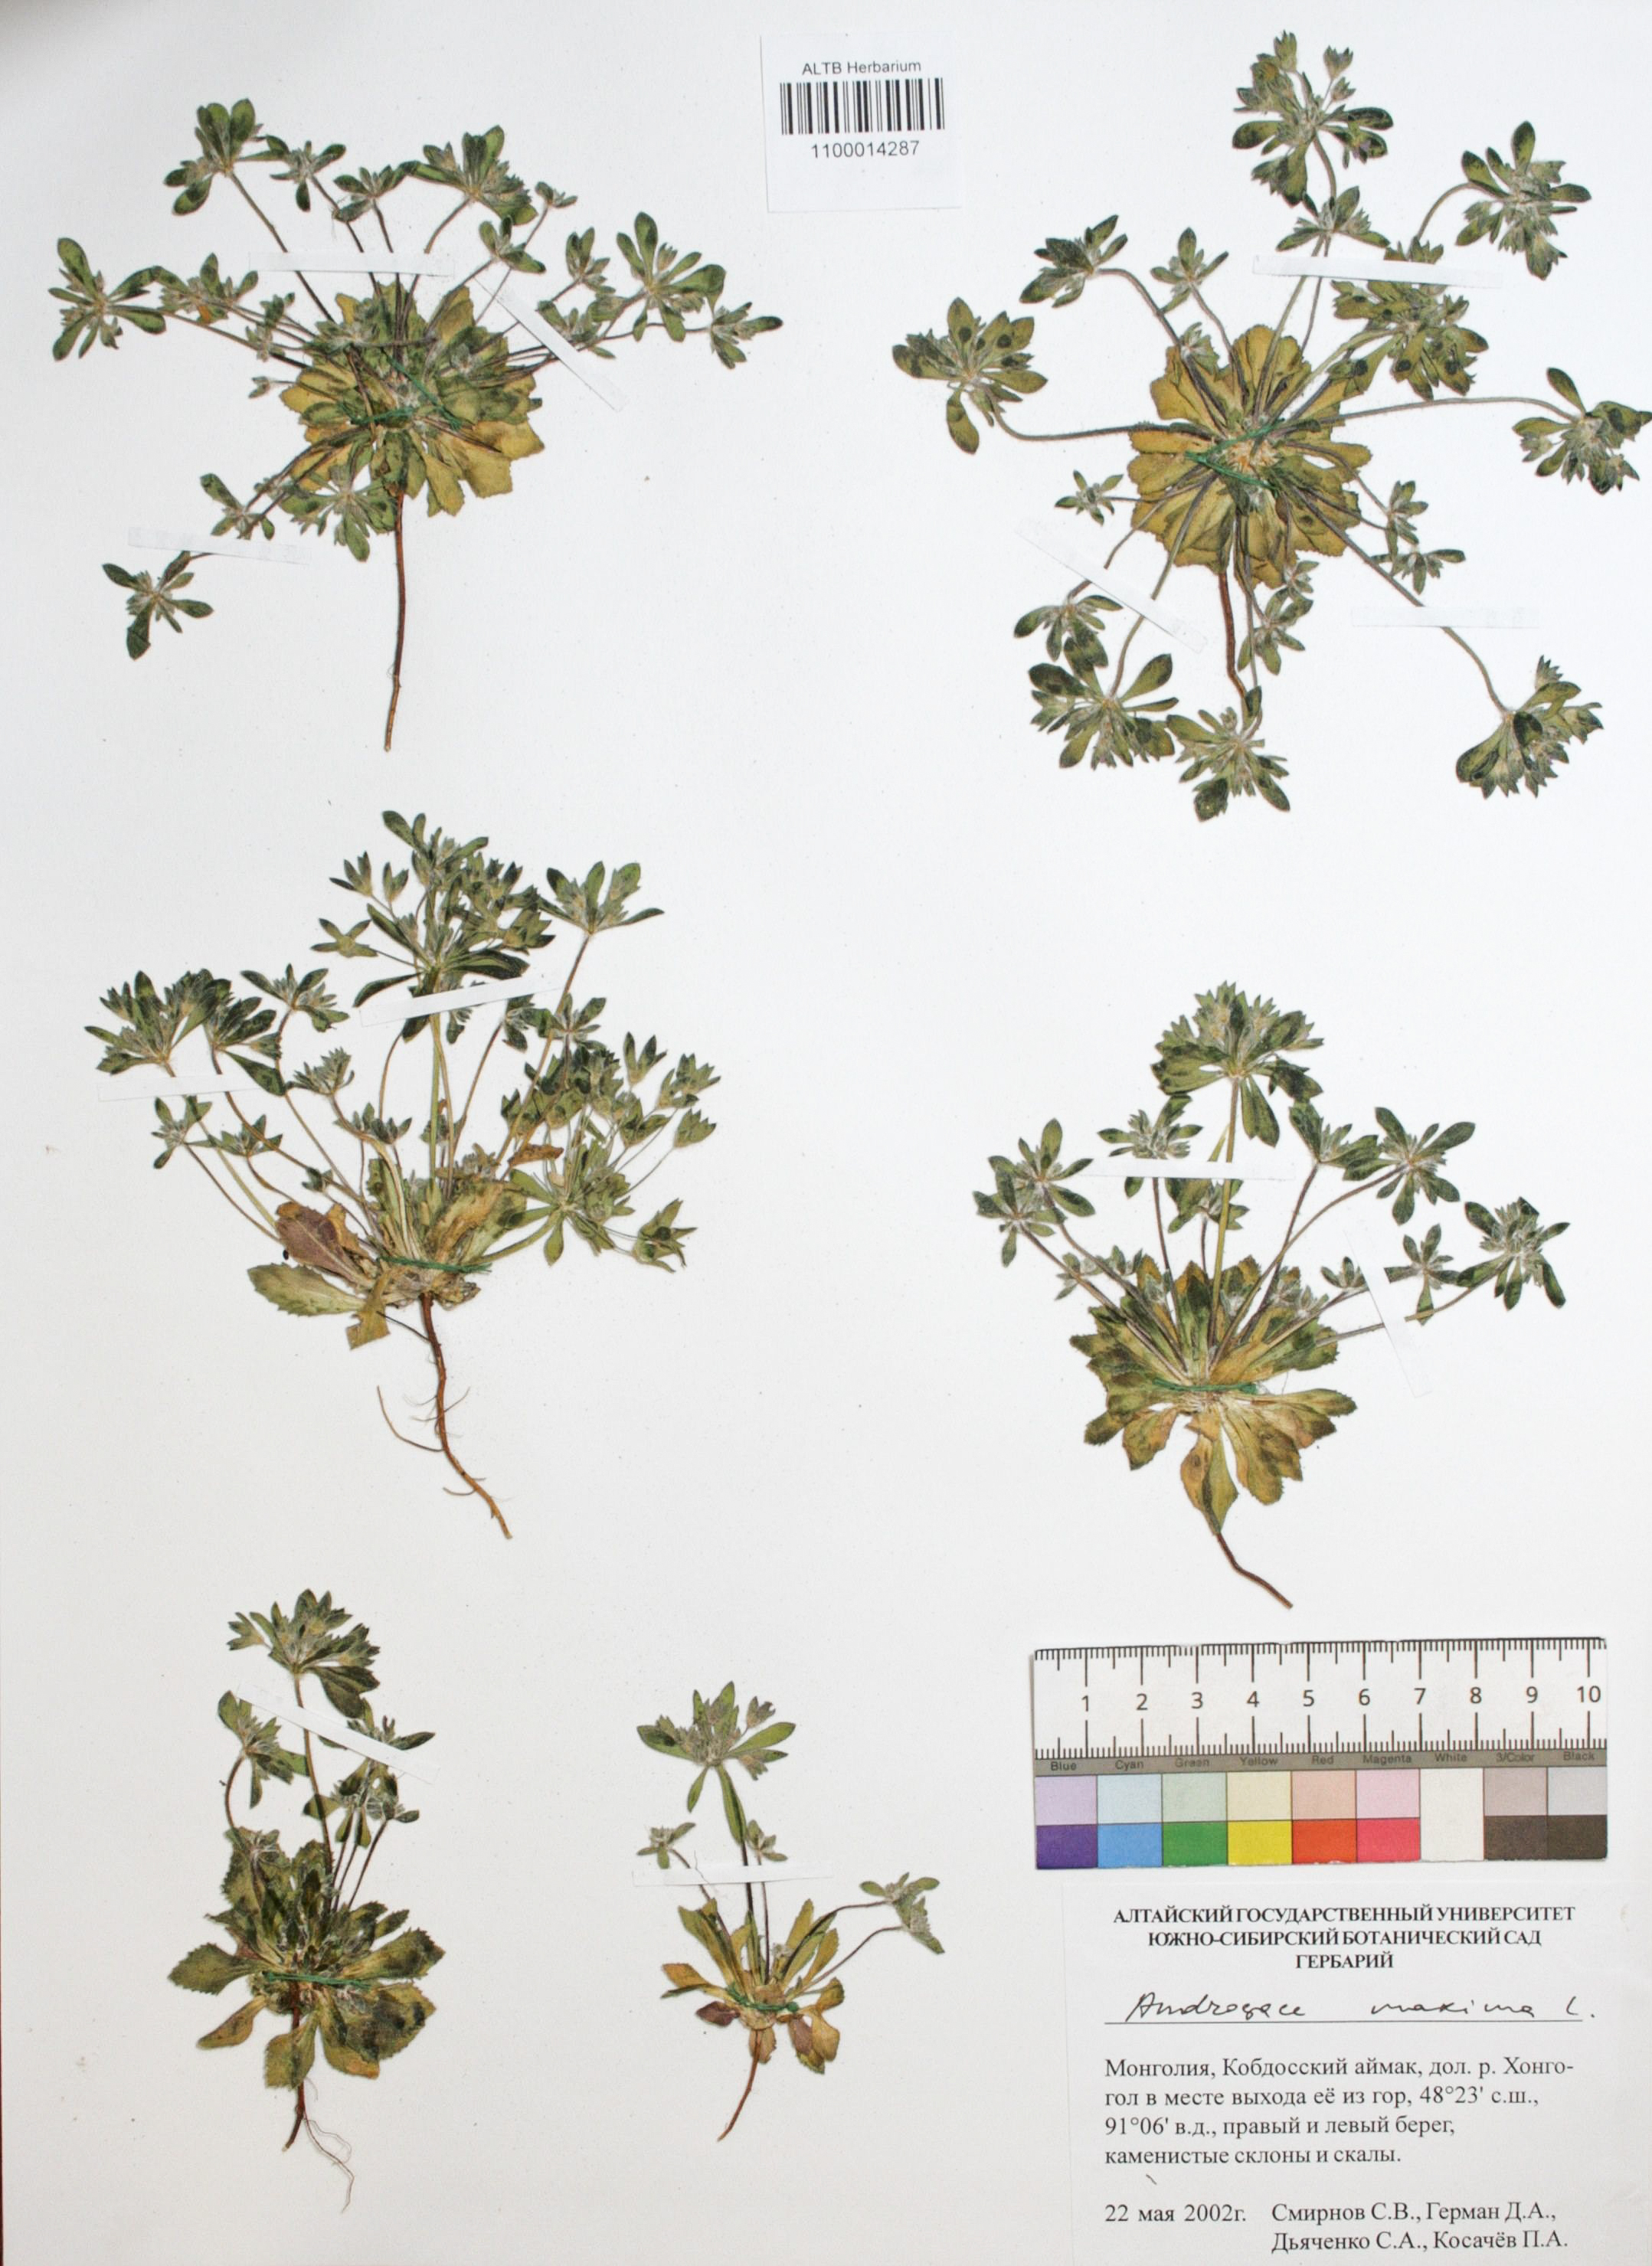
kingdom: Plantae
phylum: Tracheophyta
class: Magnoliopsida
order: Ericales
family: Primulaceae
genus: Androsace
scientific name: Androsace maxima
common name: Annual androsace
